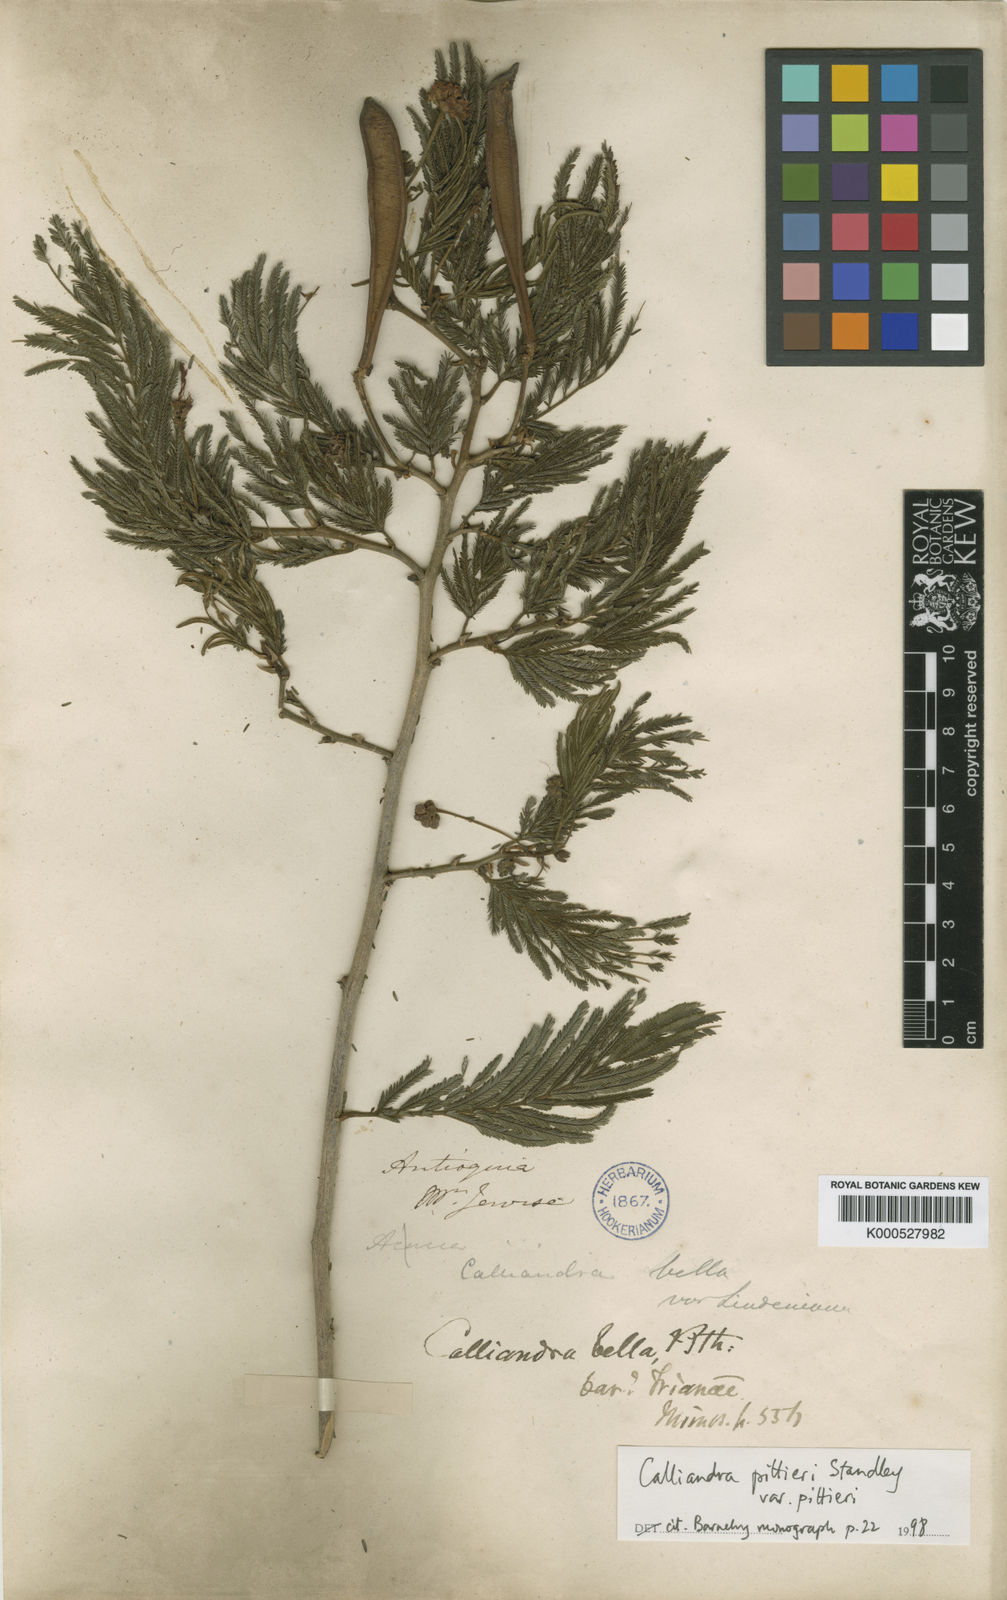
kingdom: Plantae
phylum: Tracheophyta
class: Magnoliopsida
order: Fabales
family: Fabaceae
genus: Calliandra
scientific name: Calliandra pittieri
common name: Carbonero de avenidas
